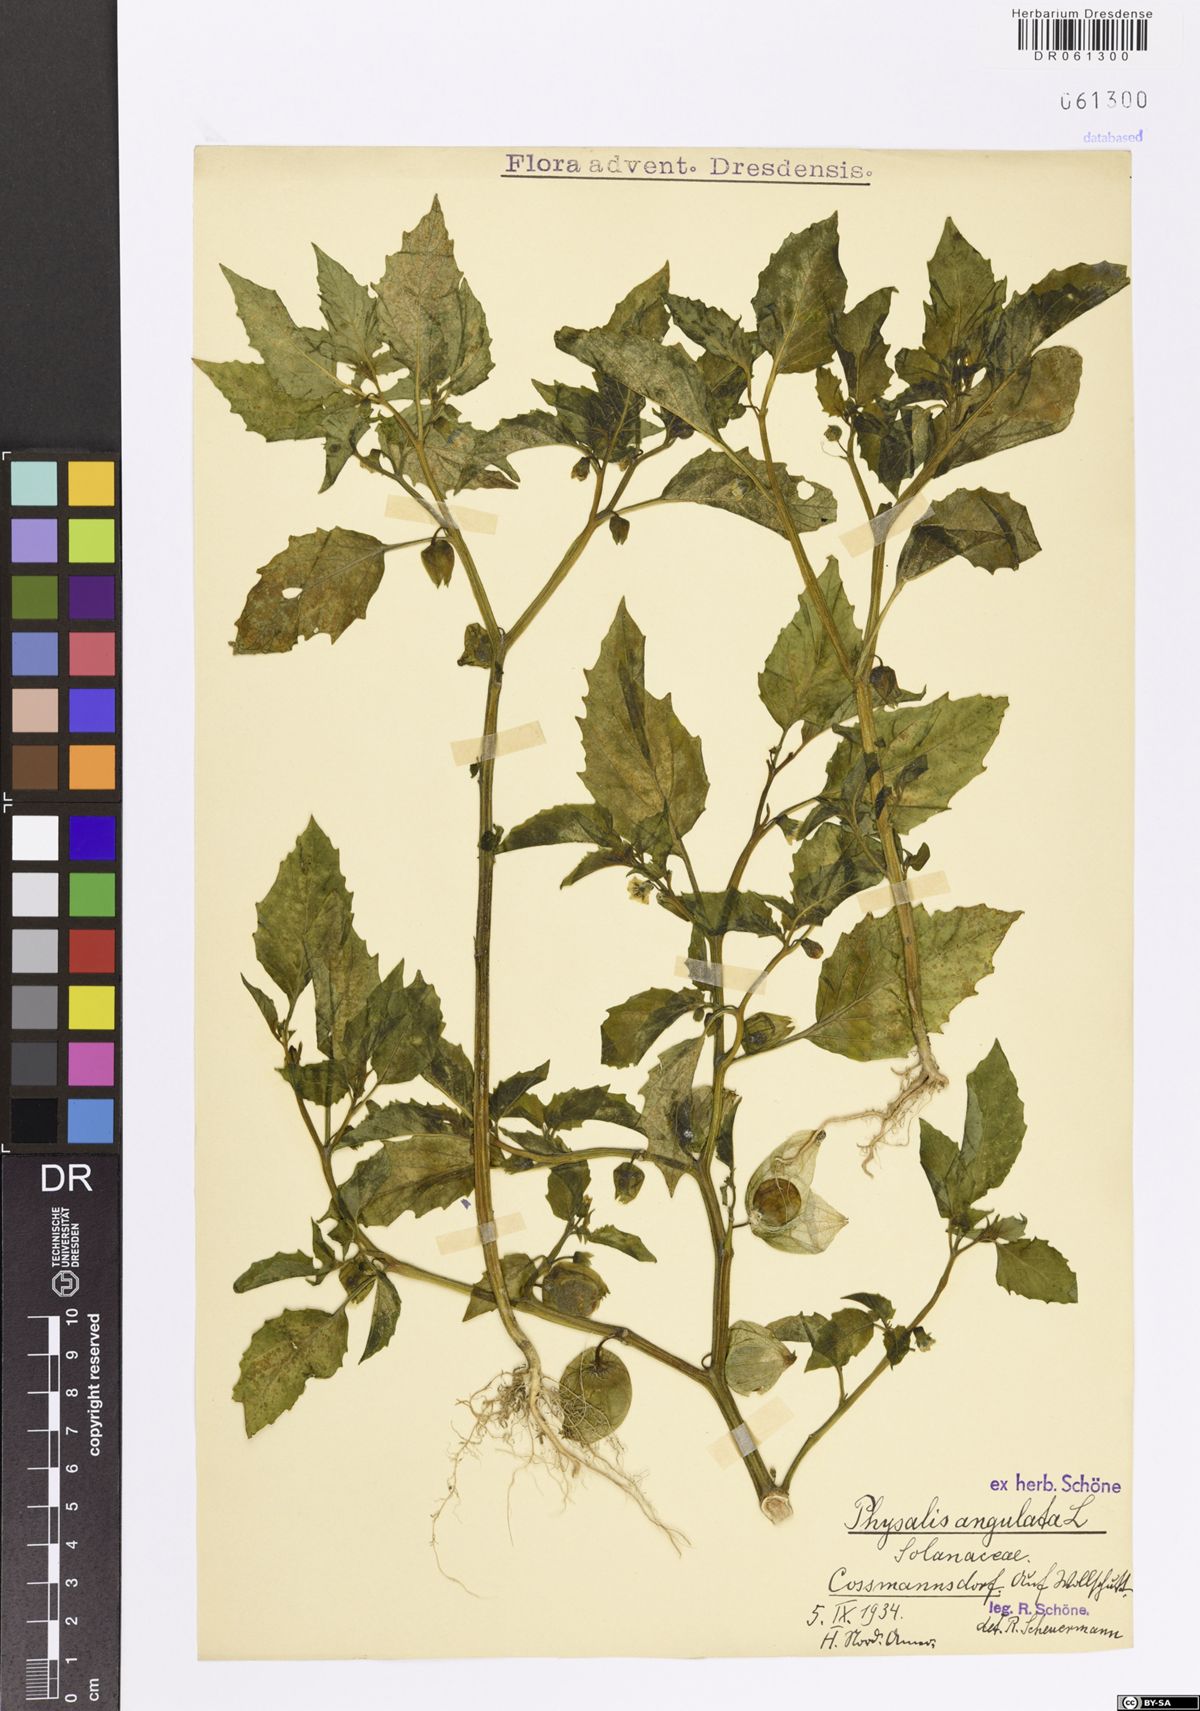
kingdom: Plantae
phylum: Tracheophyta
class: Magnoliopsida
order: Solanales
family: Solanaceae
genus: Physalis
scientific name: Physalis angulata
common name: Angular winter-cherry
